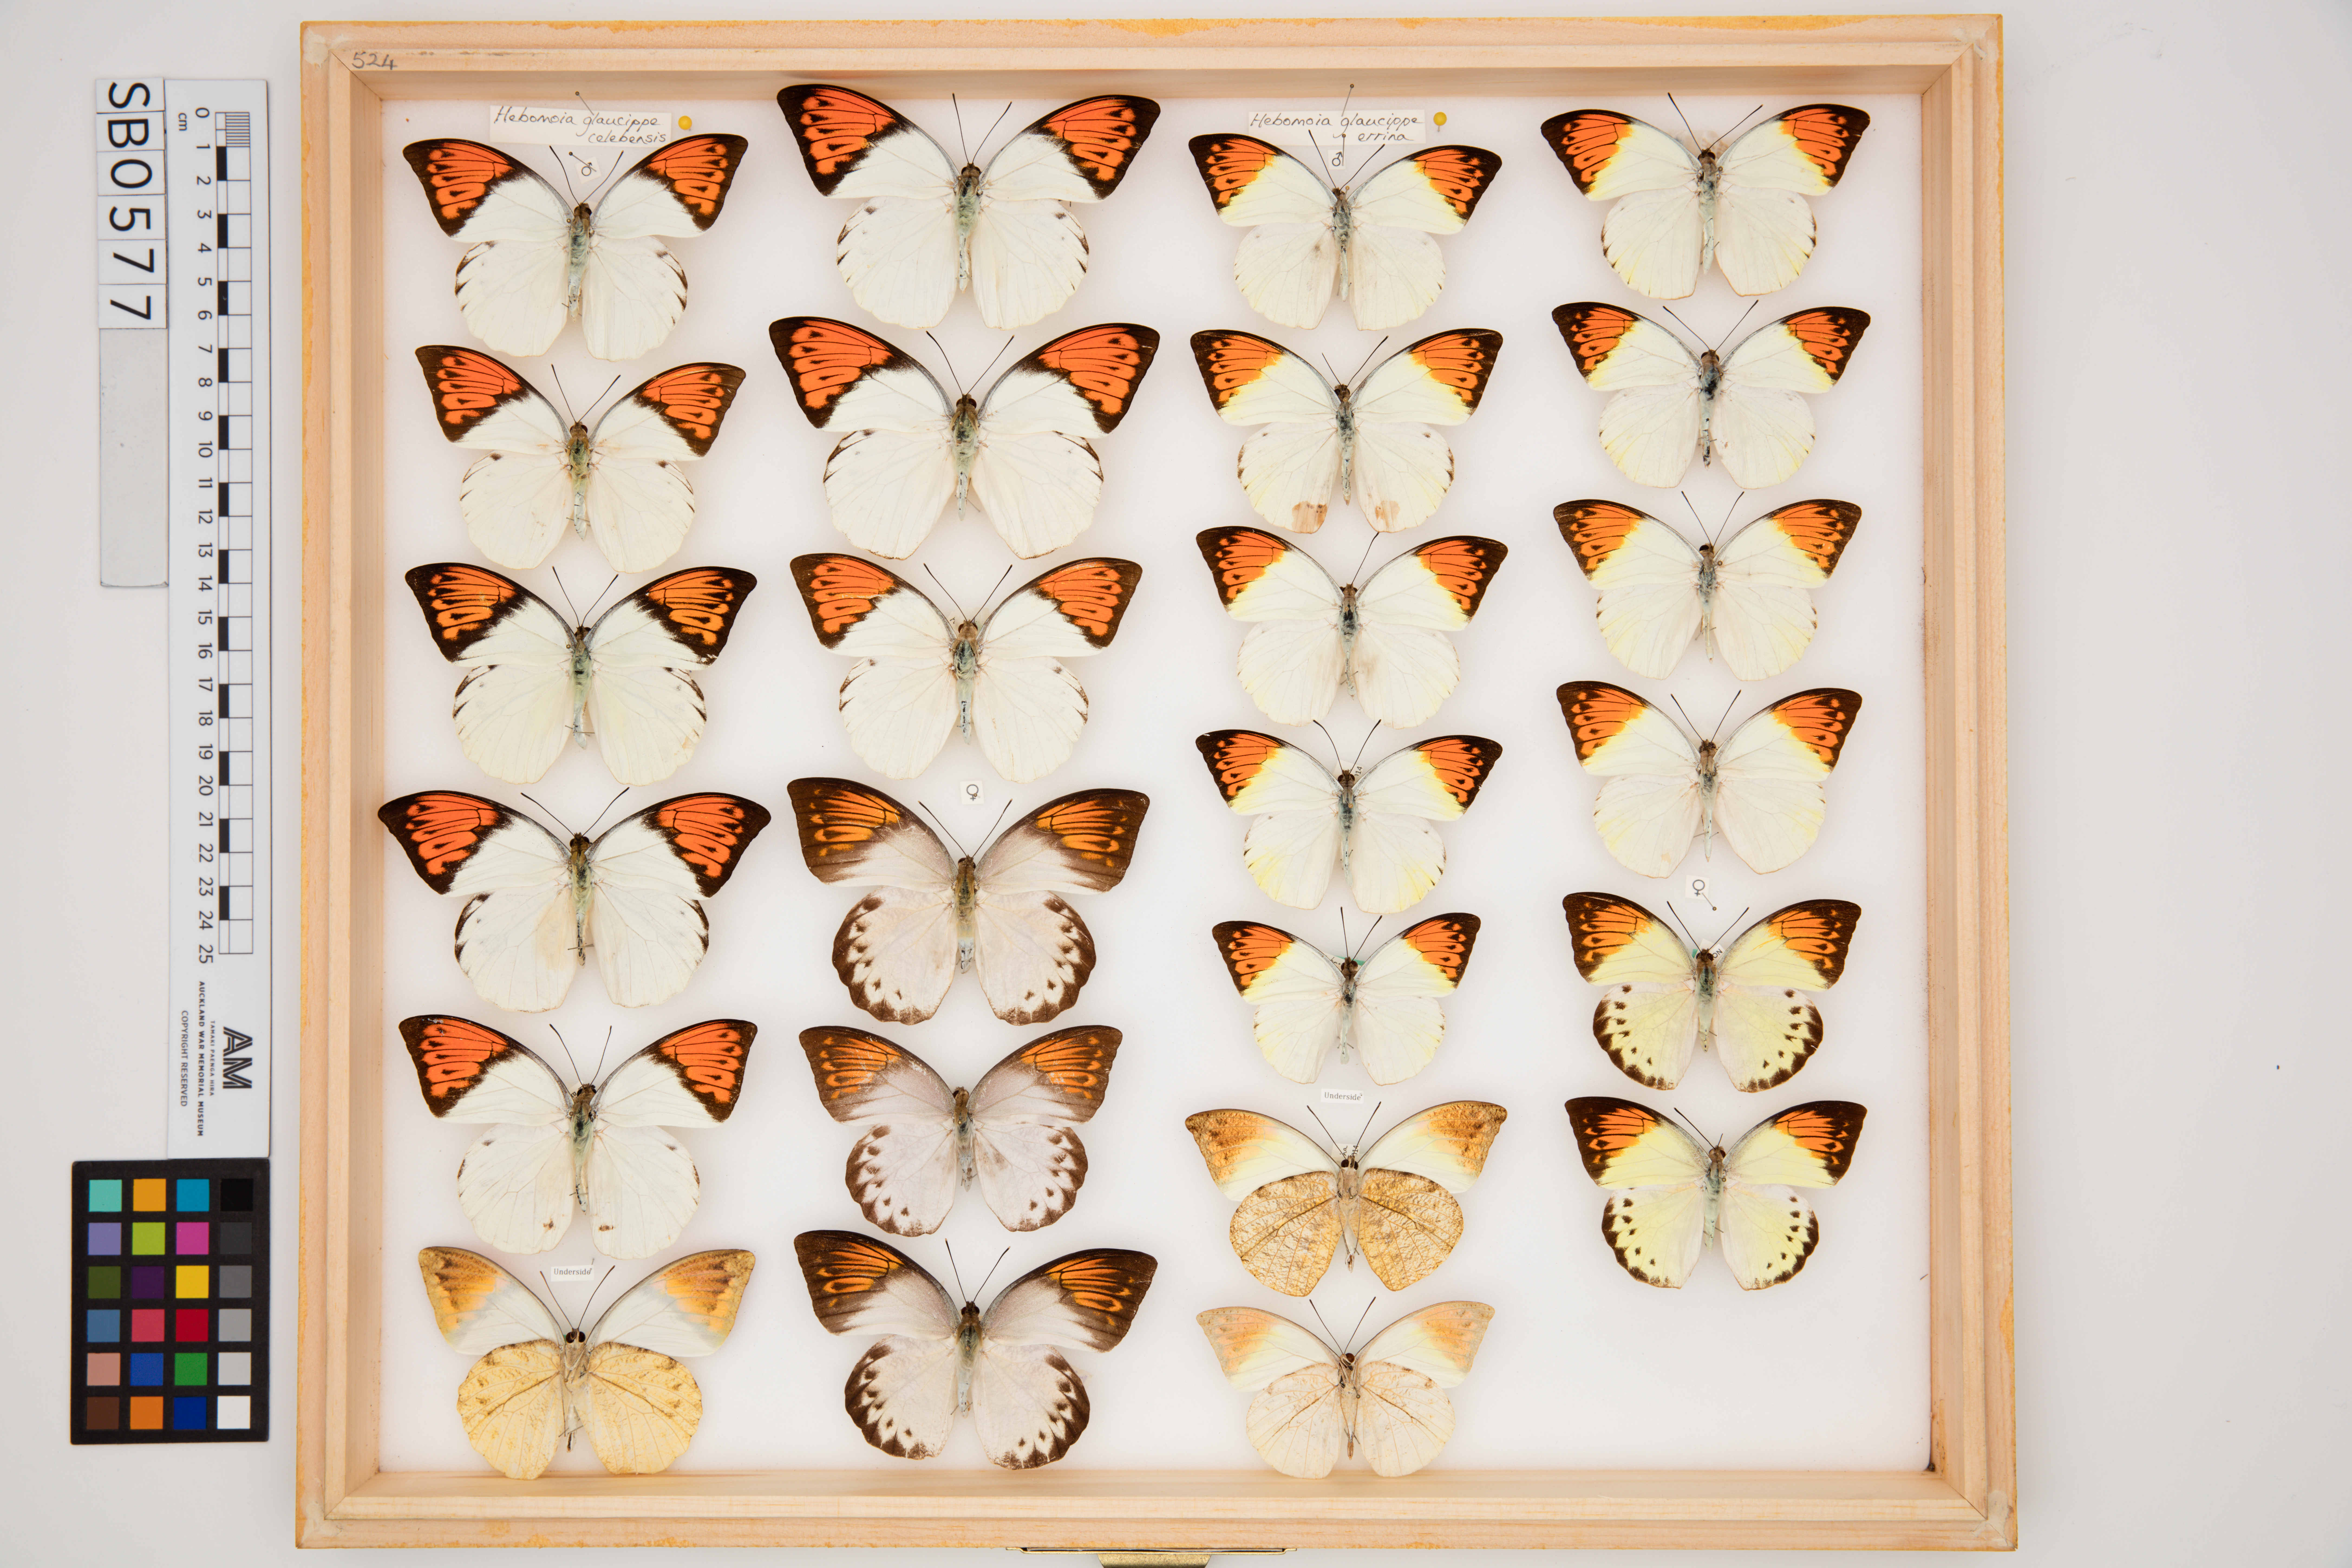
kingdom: Animalia
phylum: Arthropoda
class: Insecta
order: Lepidoptera
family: Pieridae
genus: Hebomoia
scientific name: Hebomoia glaucippe
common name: Great orange tip
